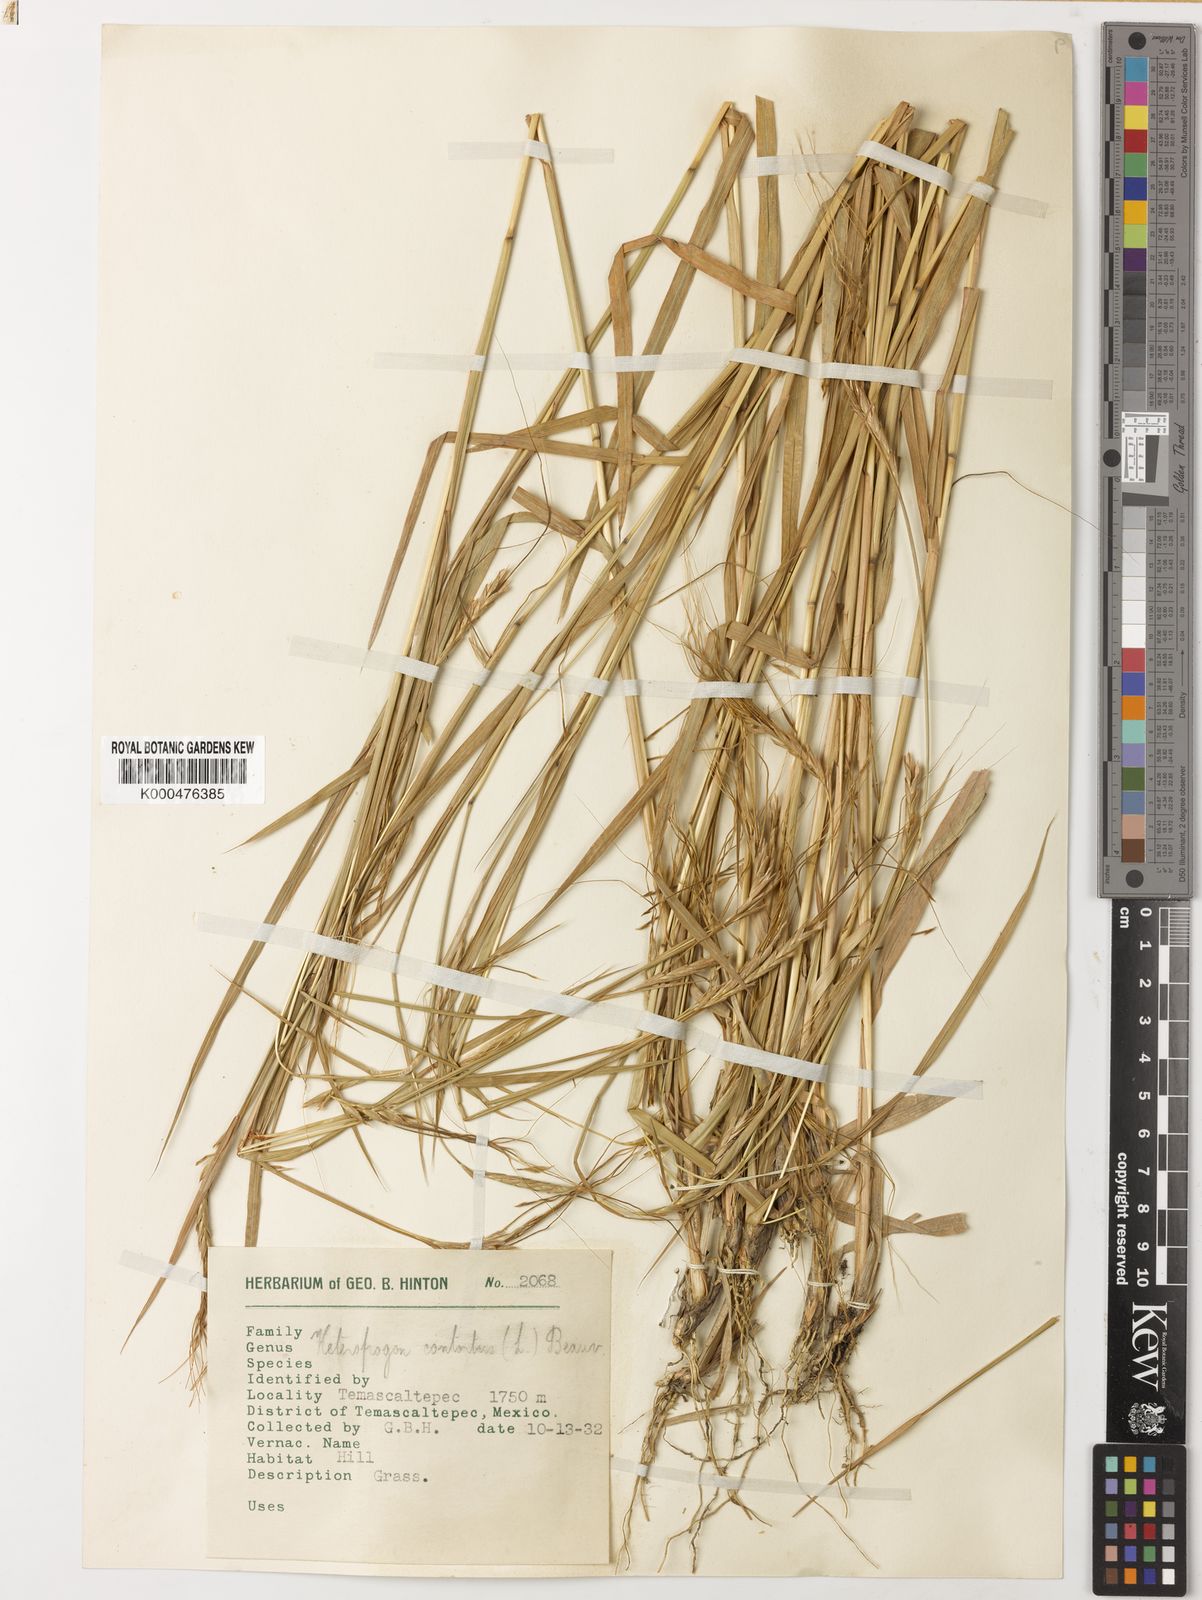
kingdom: Plantae
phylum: Tracheophyta
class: Liliopsida
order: Poales
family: Poaceae
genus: Heteropogon
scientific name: Heteropogon contortus
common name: Tanglehead
